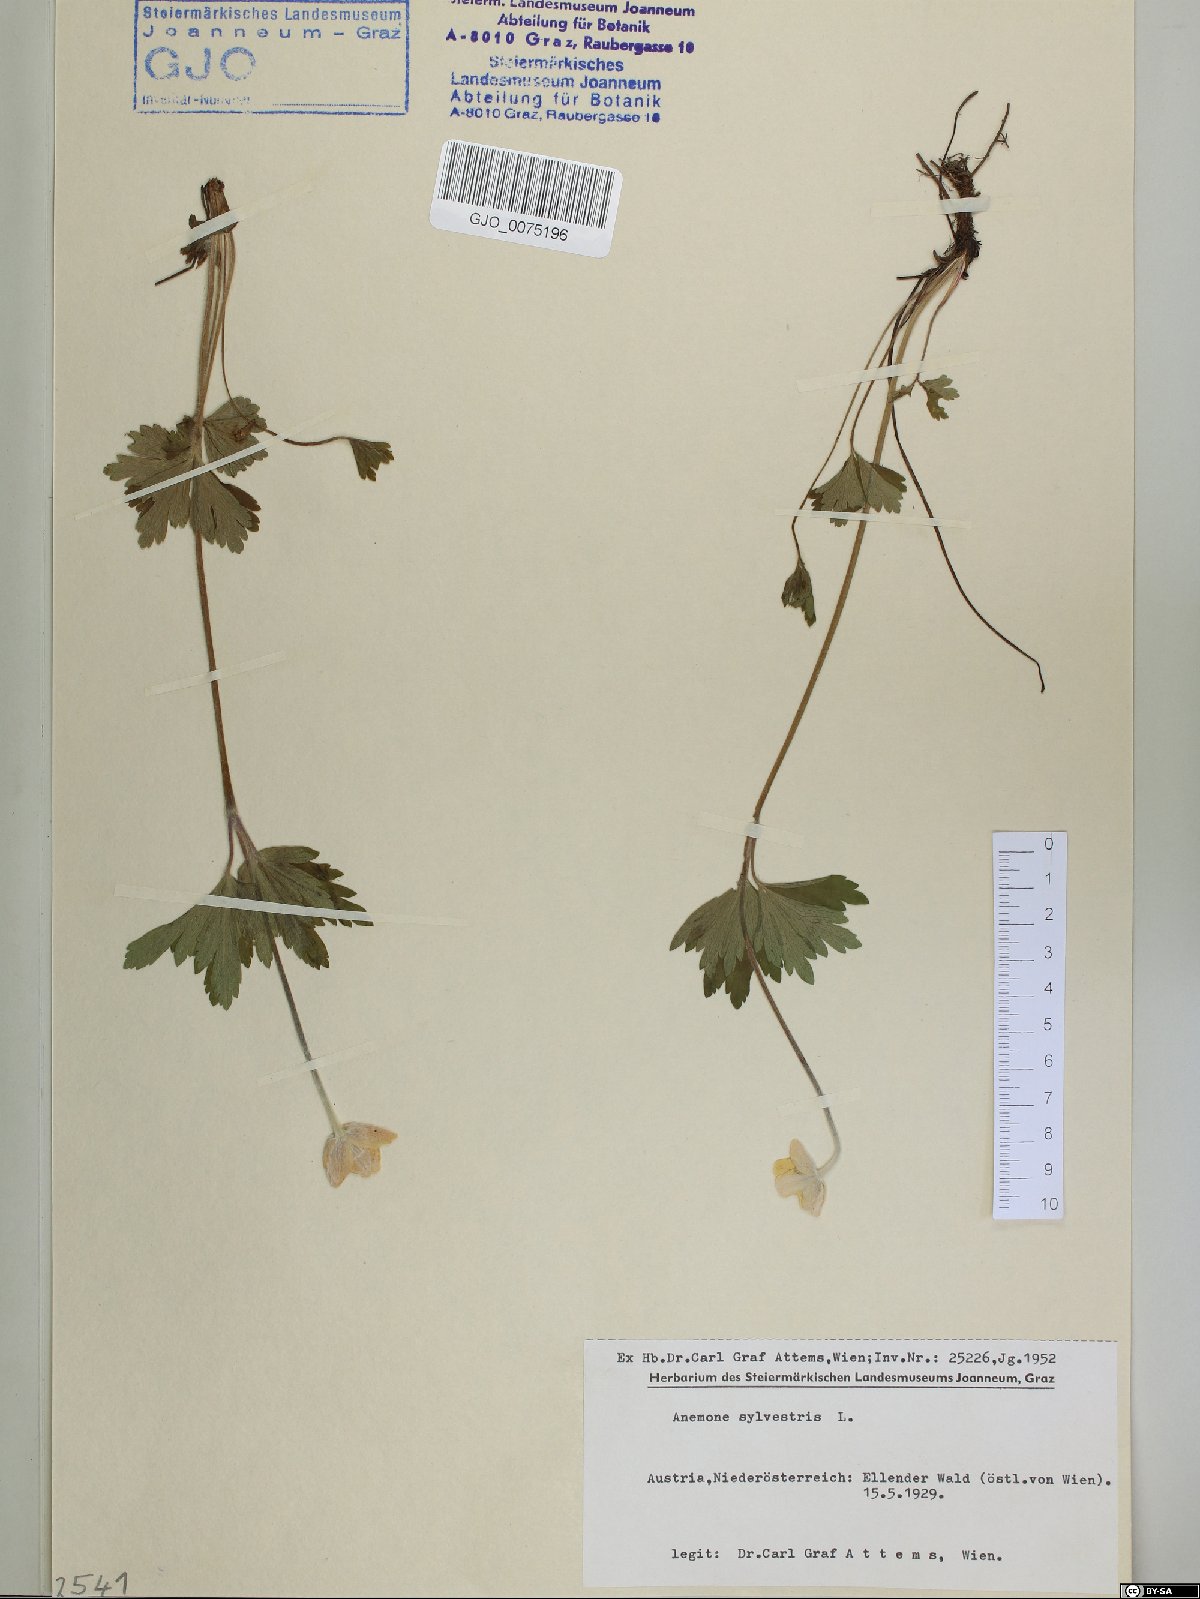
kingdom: Plantae
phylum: Tracheophyta
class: Magnoliopsida
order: Ranunculales
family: Ranunculaceae
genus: Anemone
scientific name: Anemone sylvestris
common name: Snowdrop anemone
